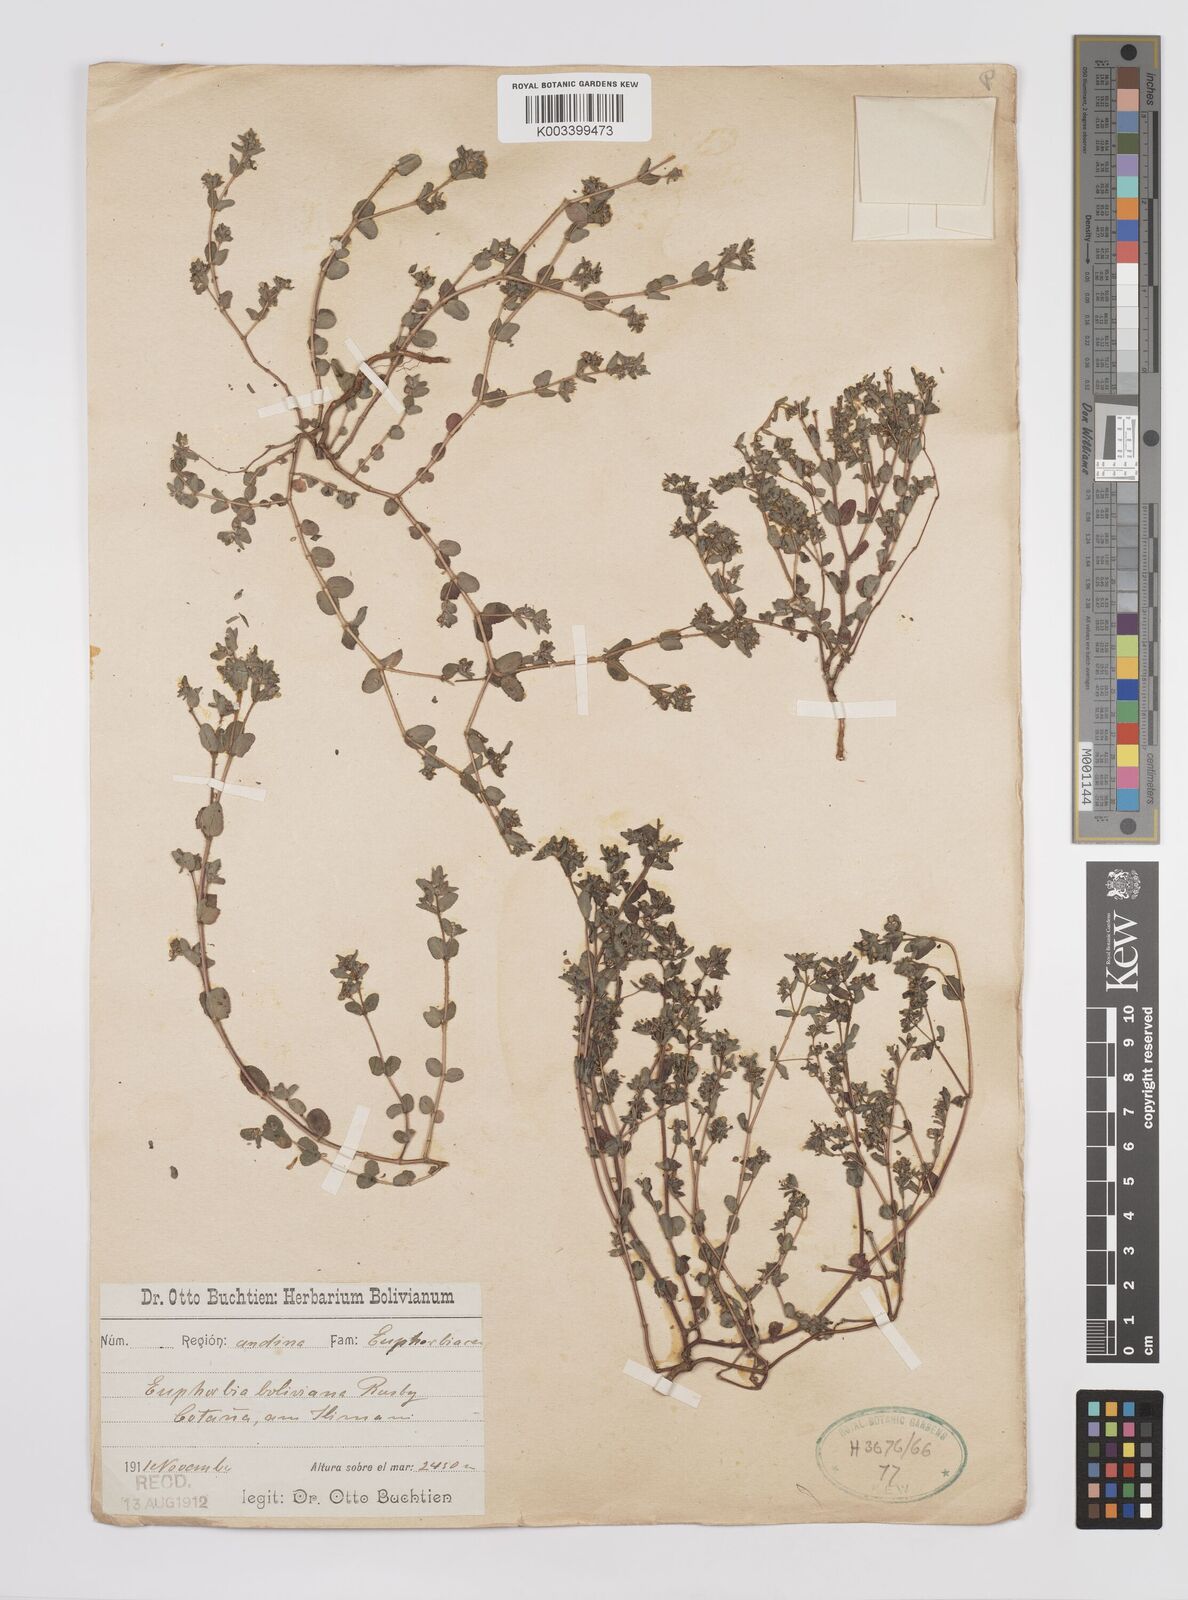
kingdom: Plantae
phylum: Tracheophyta
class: Magnoliopsida
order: Malpighiales
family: Euphorbiaceae
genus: Euphorbia
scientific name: Euphorbia
